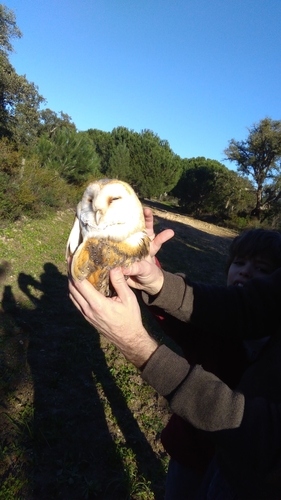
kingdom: Animalia
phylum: Chordata
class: Aves
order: Strigiformes
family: Tytonidae
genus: Tyto
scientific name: Tyto alba
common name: Barn owl
